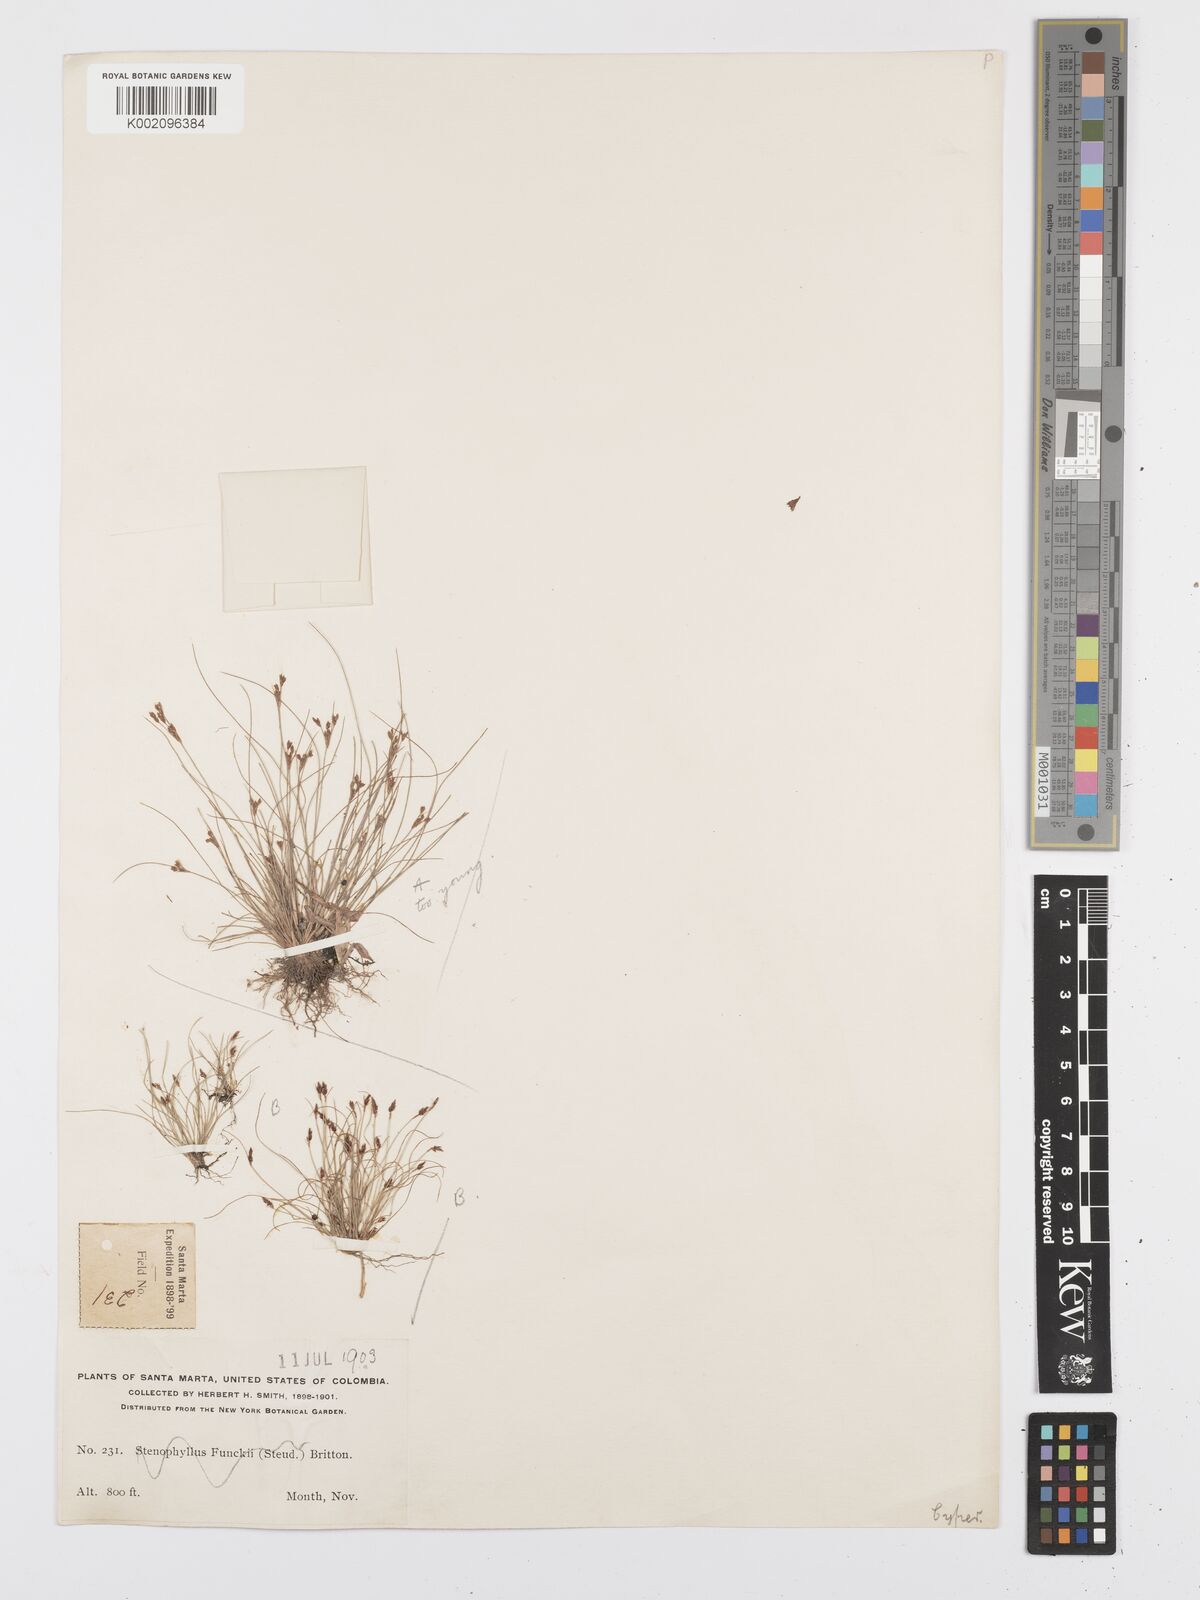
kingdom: Plantae
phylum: Tracheophyta
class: Liliopsida
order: Poales
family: Cyperaceae
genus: Bulbostylis
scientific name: Bulbostylis funckii
